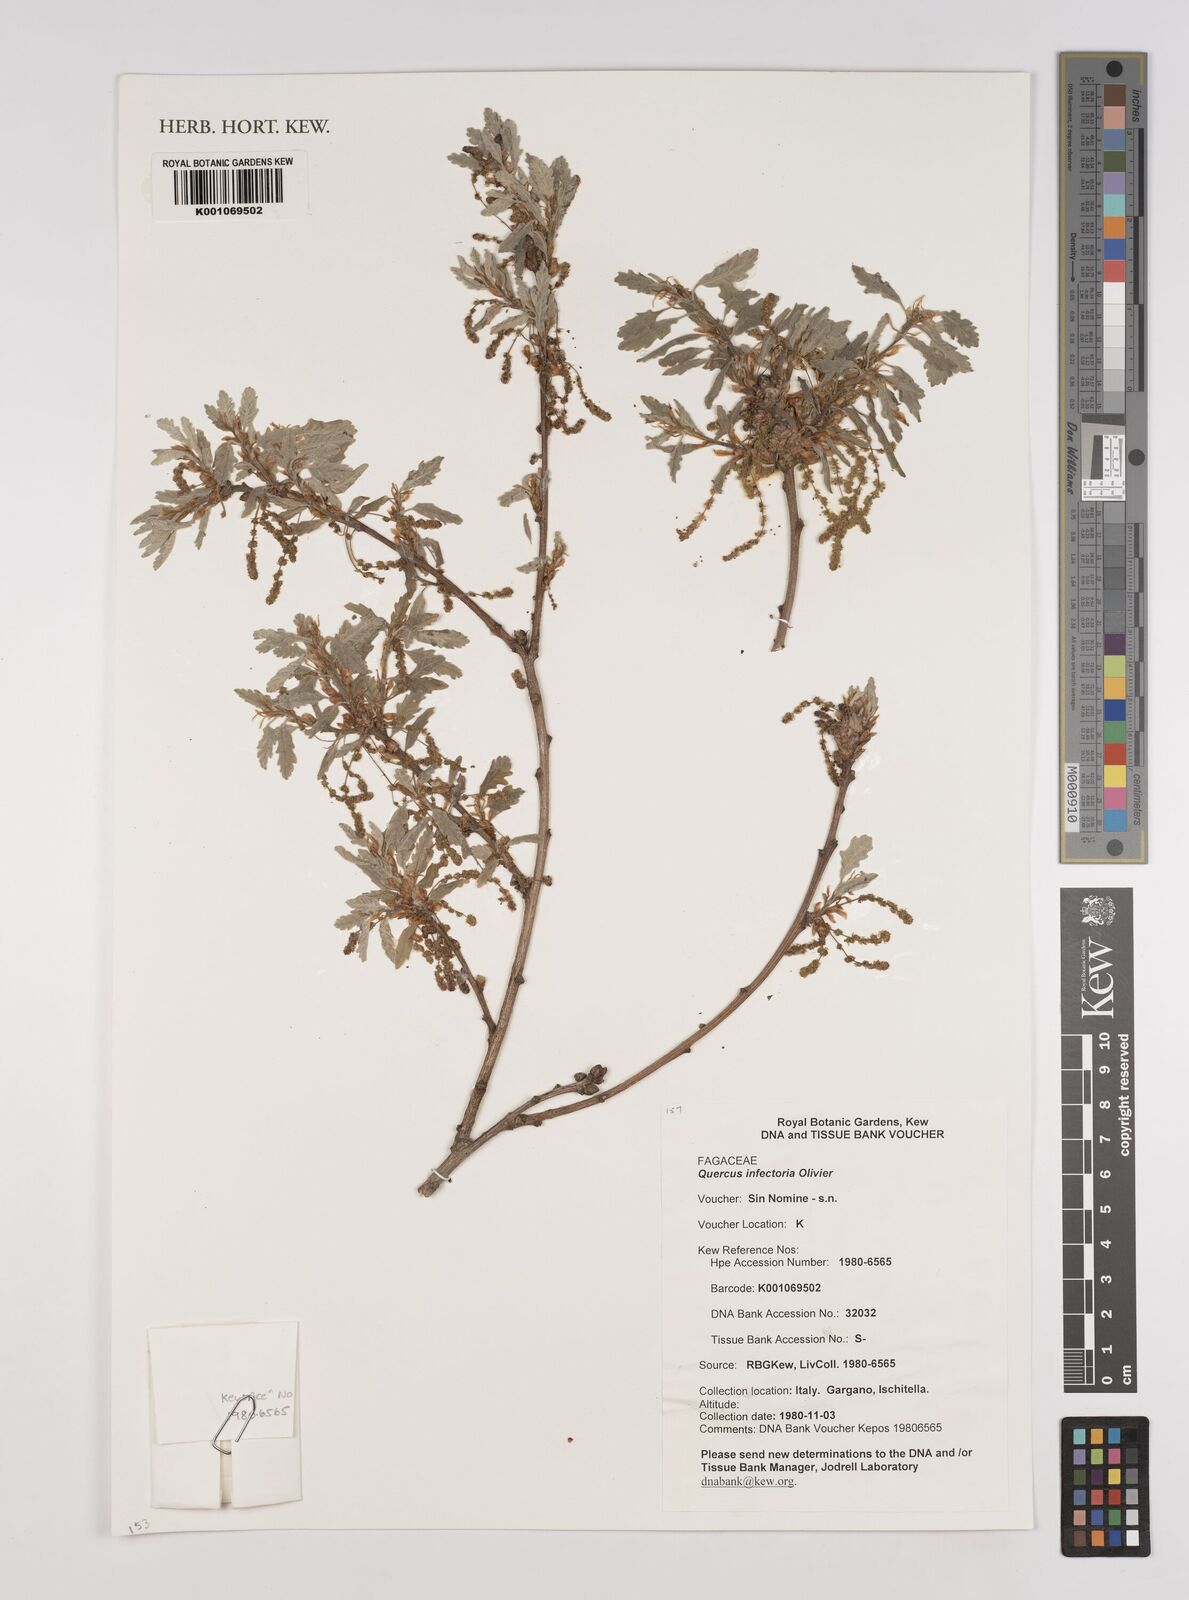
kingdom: Plantae
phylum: Tracheophyta
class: Magnoliopsida
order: Fagales
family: Fagaceae
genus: Quercus
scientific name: Quercus infectoria
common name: Aleppo oak
